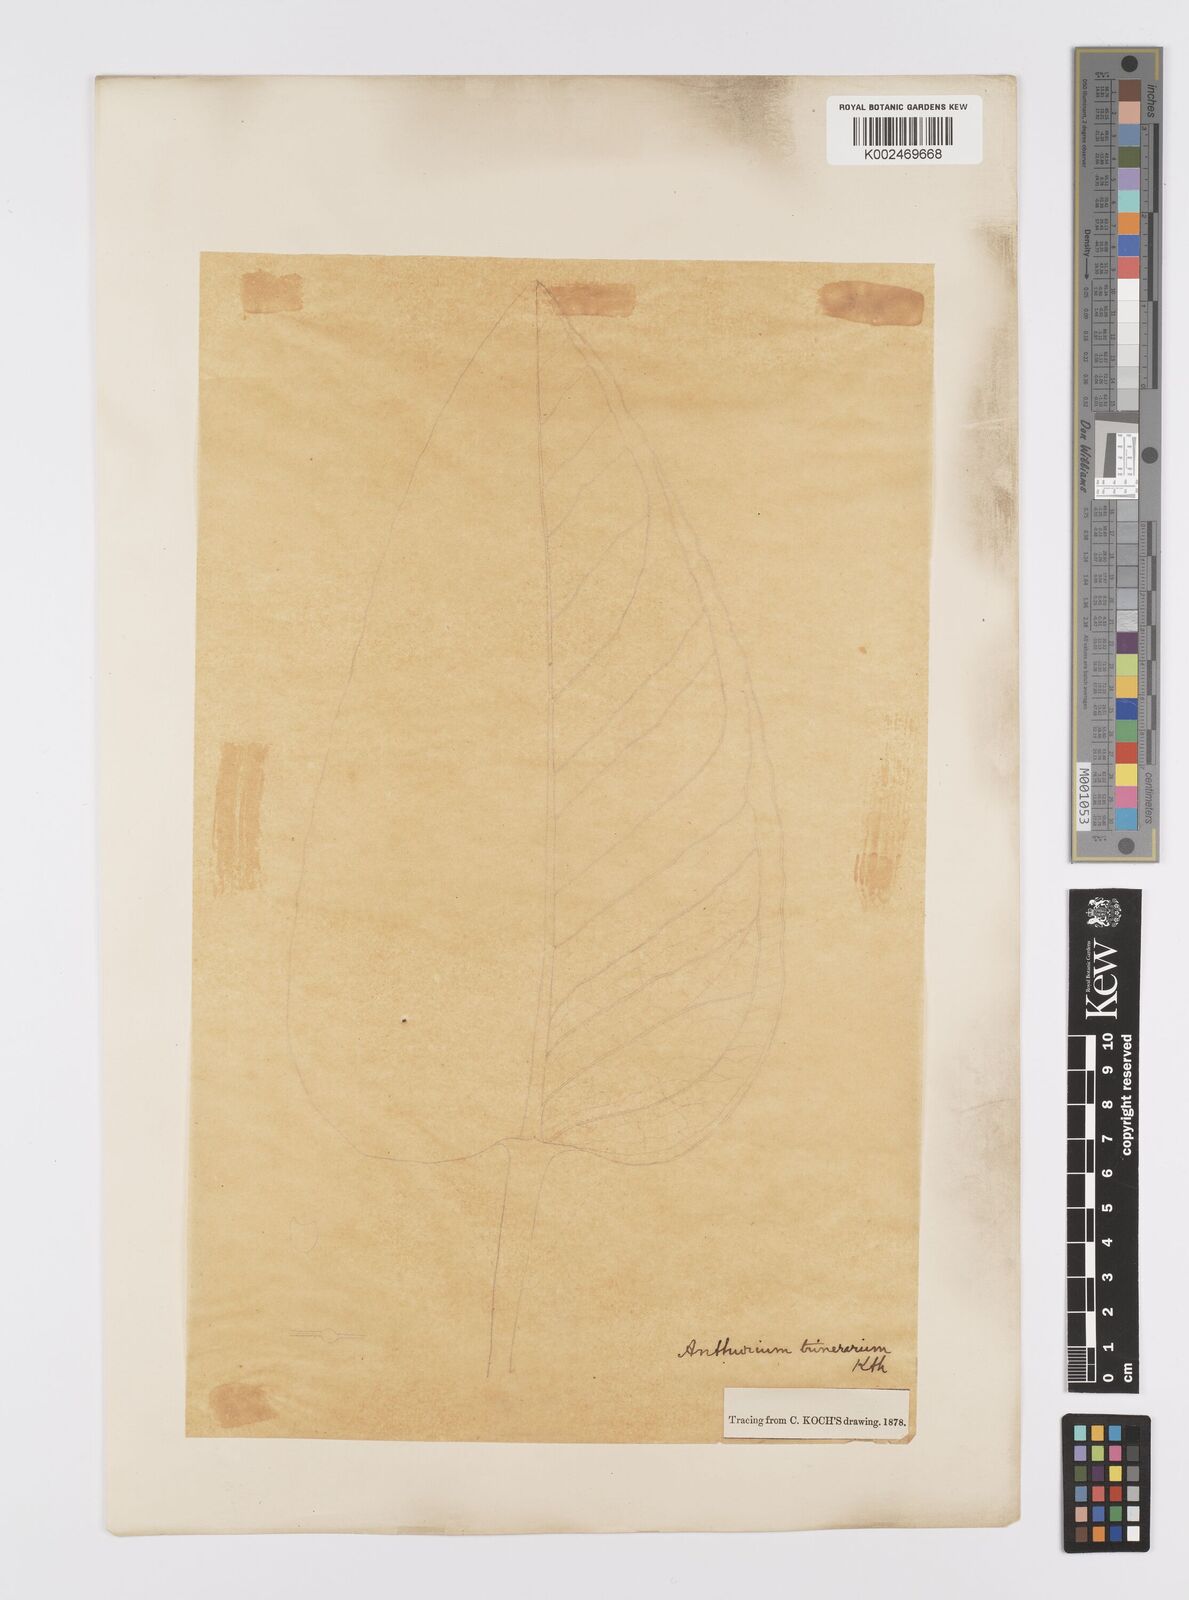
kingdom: Plantae
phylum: Tracheophyta
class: Liliopsida
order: Alismatales
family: Araceae
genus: Anthurium
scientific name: Anthurium trinervium
